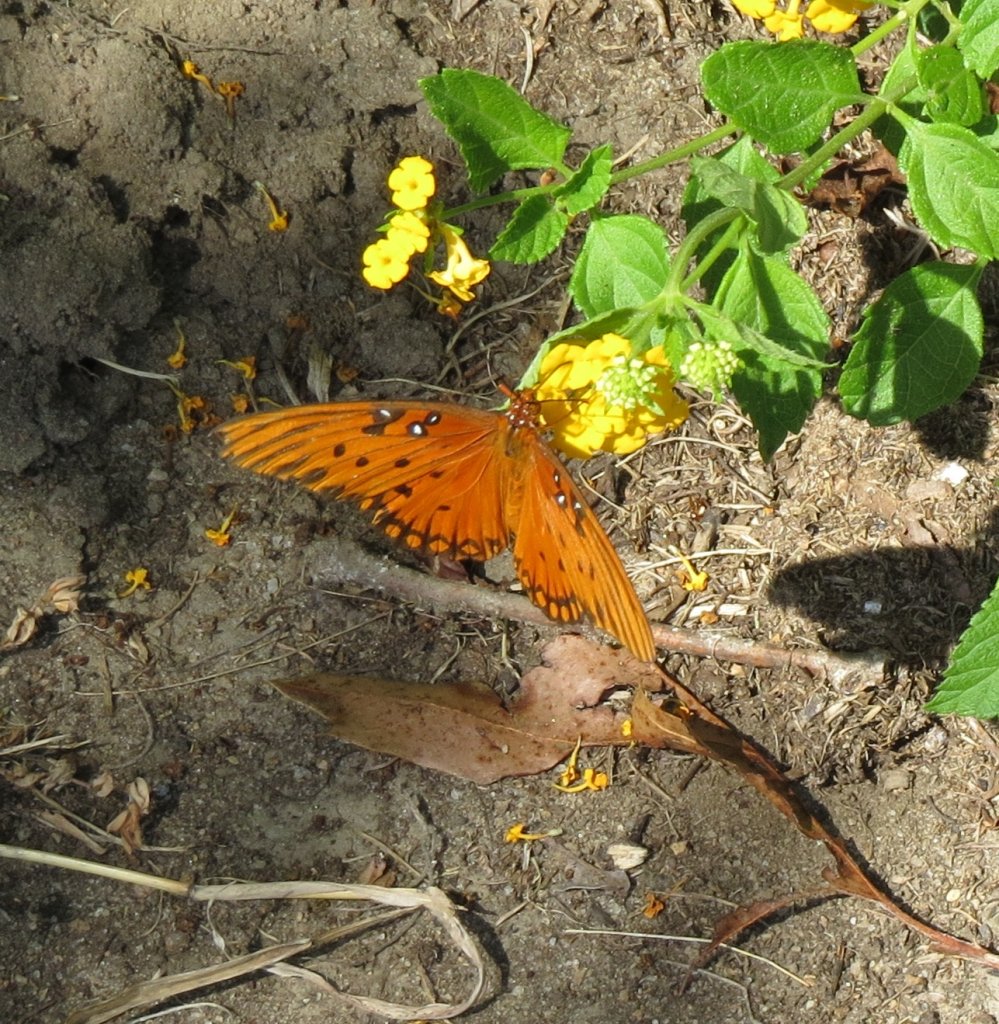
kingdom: Animalia
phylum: Arthropoda
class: Insecta
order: Lepidoptera
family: Nymphalidae
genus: Dione
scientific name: Dione vanillae
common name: Gulf Fritillary
